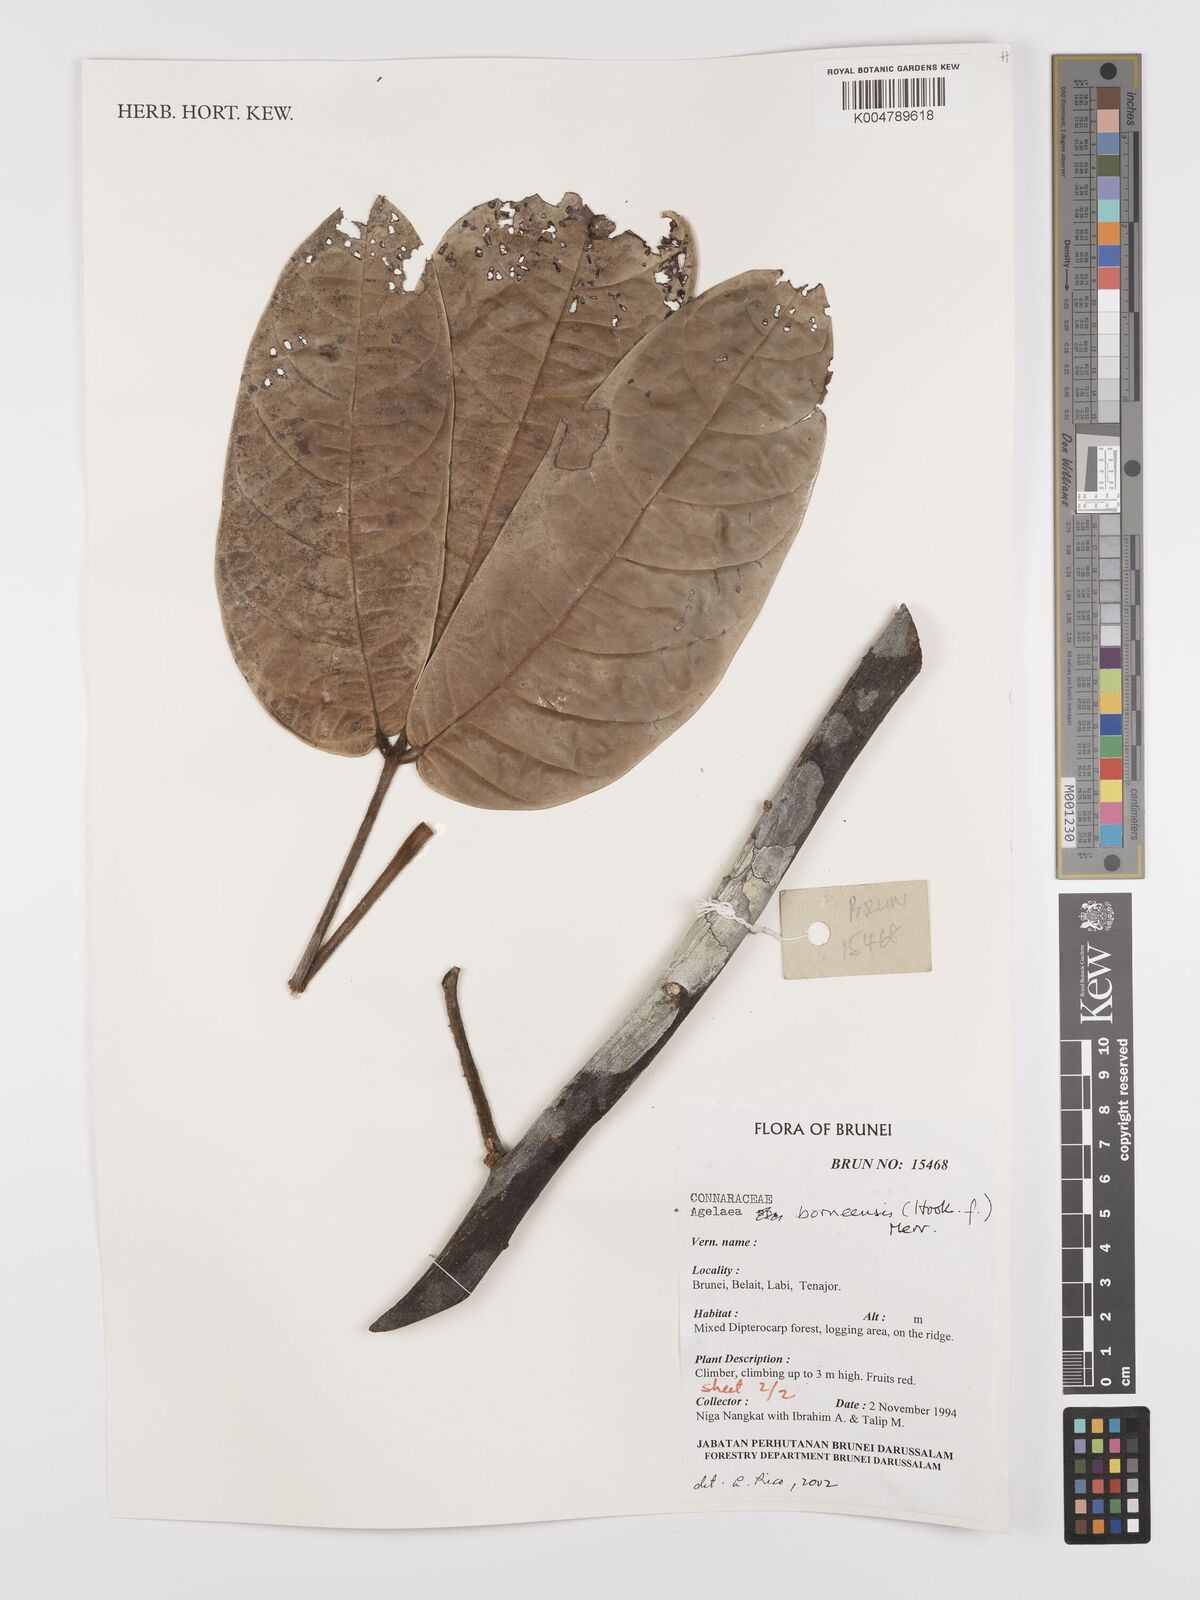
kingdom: Plantae
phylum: Tracheophyta
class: Magnoliopsida
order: Oxalidales
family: Connaraceae
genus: Agelaea
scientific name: Agelaea borneensis
